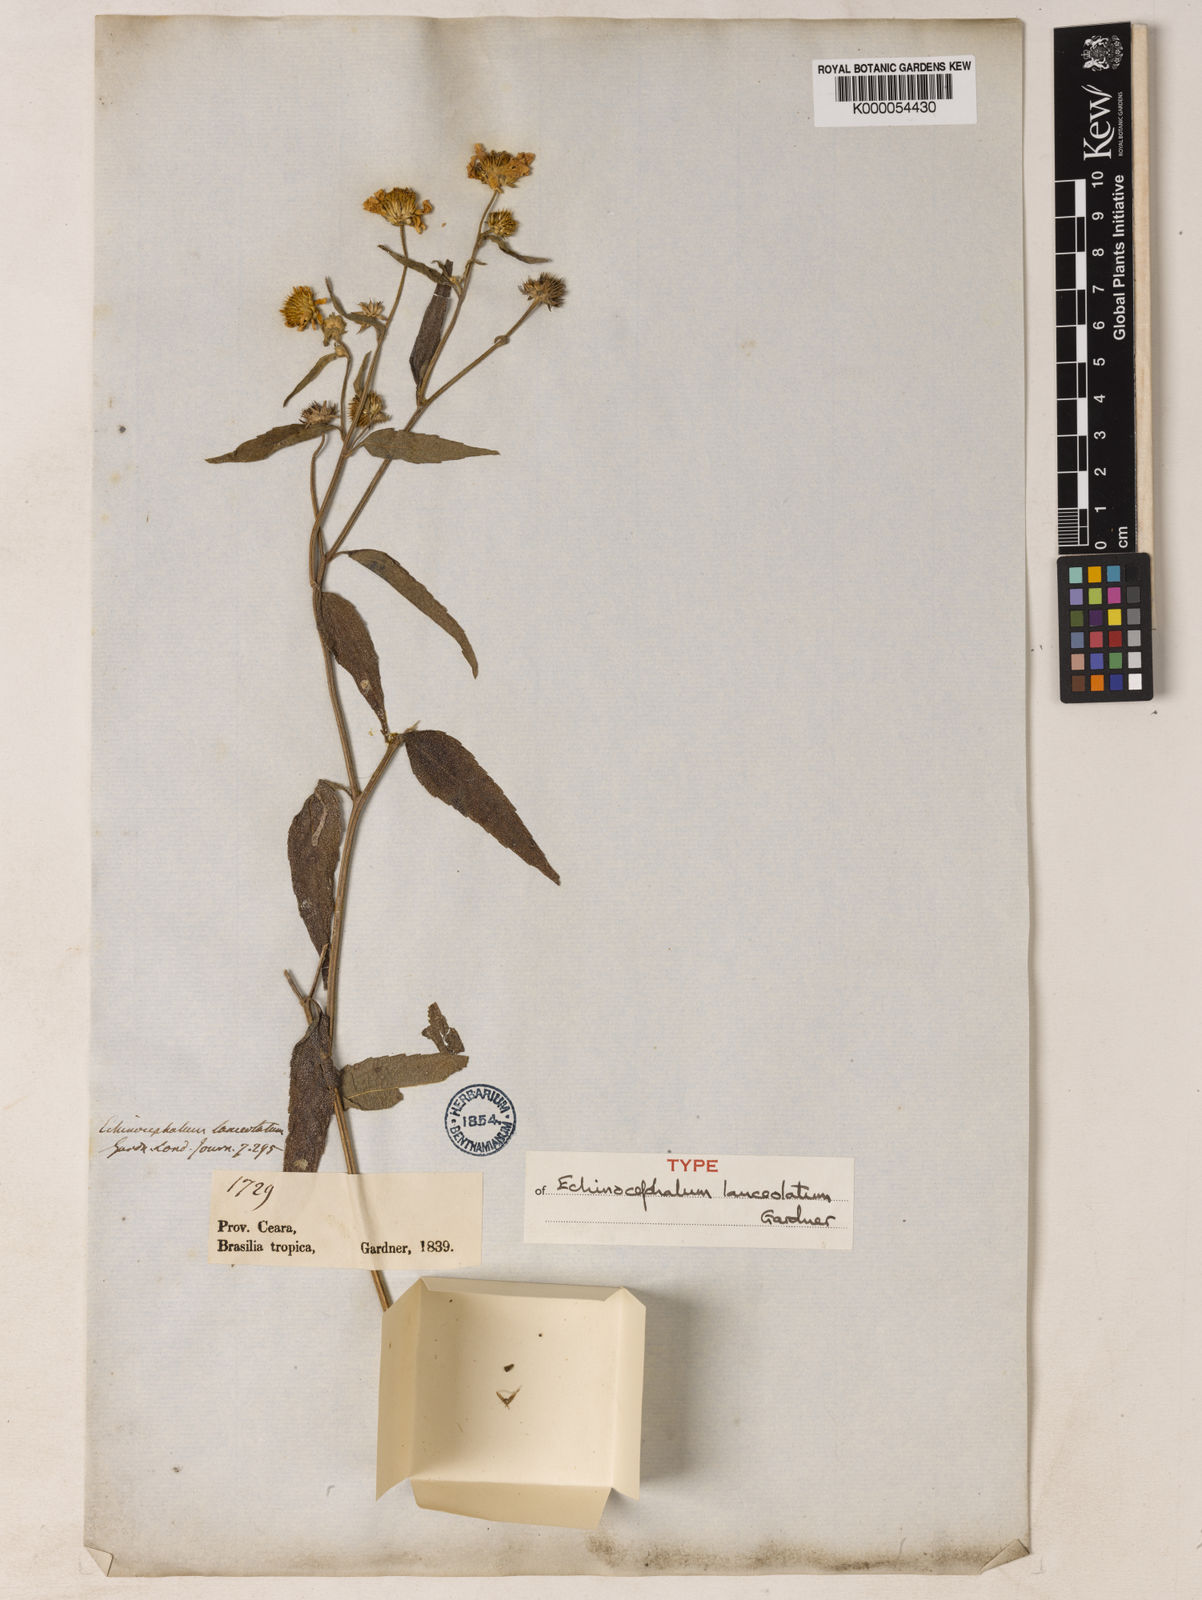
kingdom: Plantae
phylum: Tracheophyta
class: Magnoliopsida
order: Asterales
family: Asteraceae
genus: Echinocephalum
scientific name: Echinocephalum latifolium
